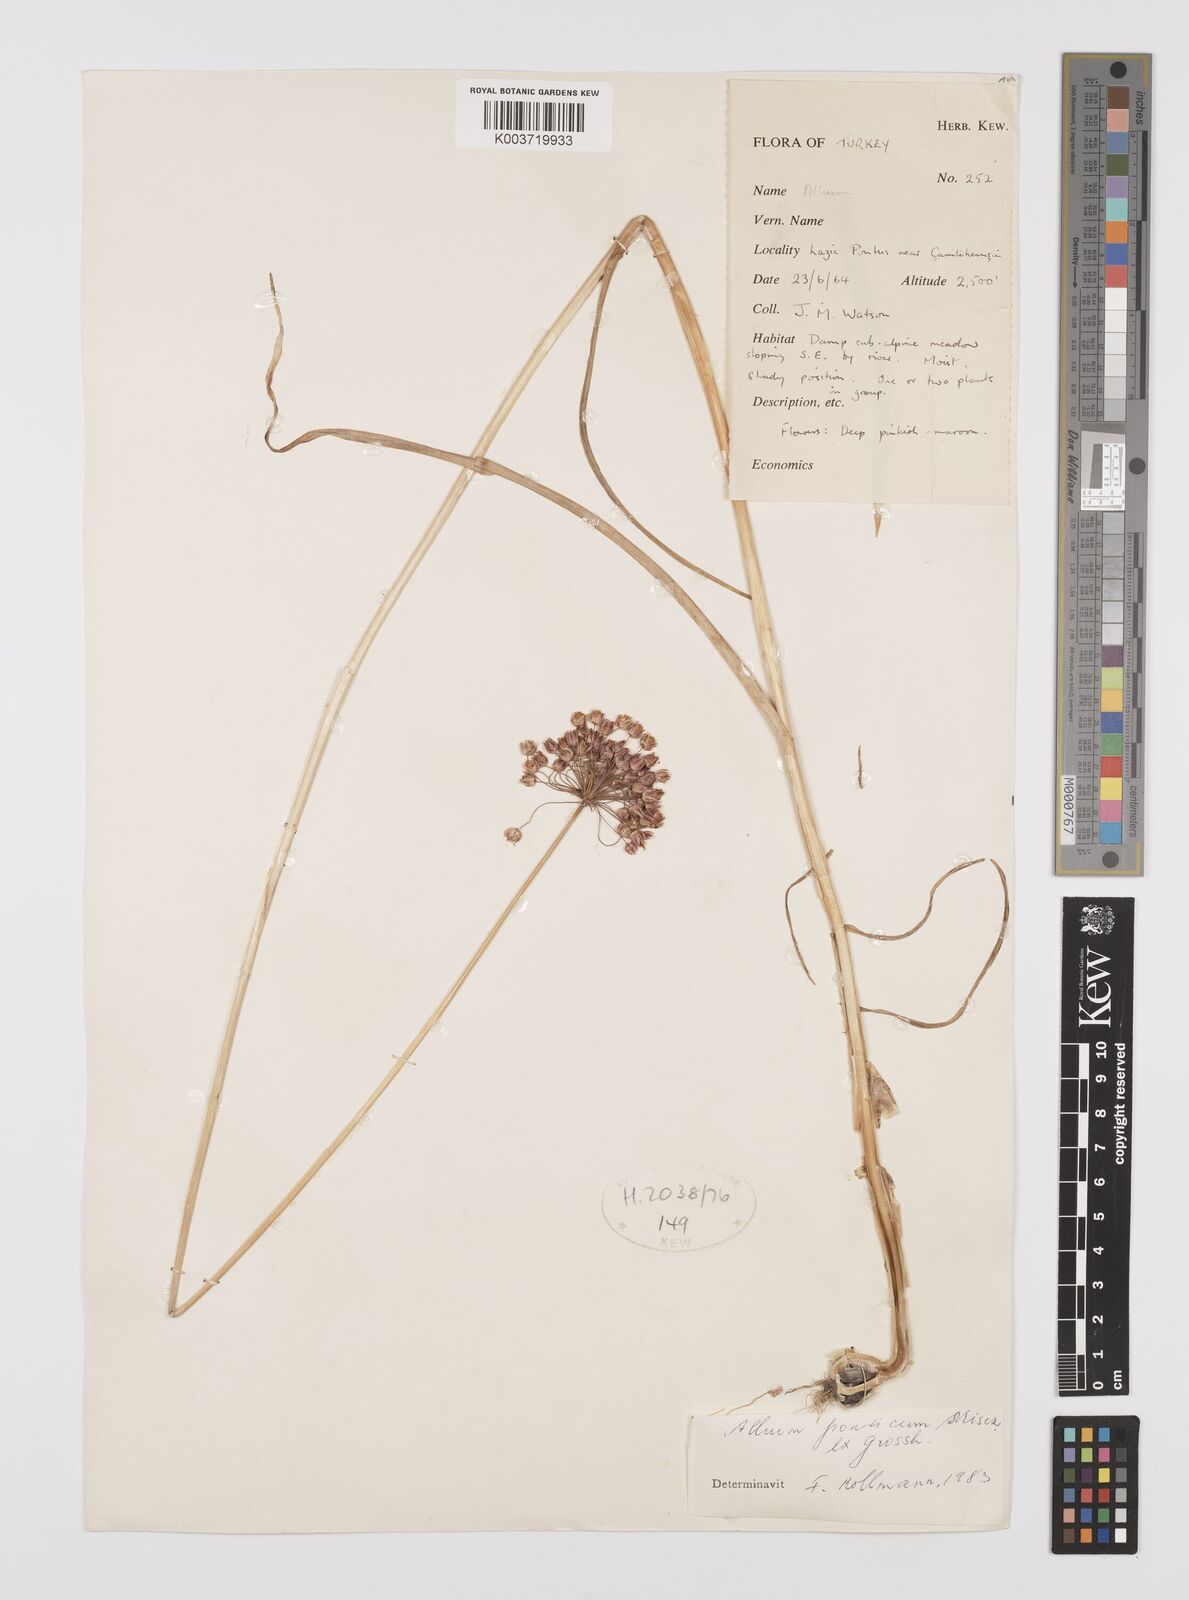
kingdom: Plantae
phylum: Tracheophyta
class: Liliopsida
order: Asparagales
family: Amaryllidaceae
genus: Allium
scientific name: Allium ponticum
